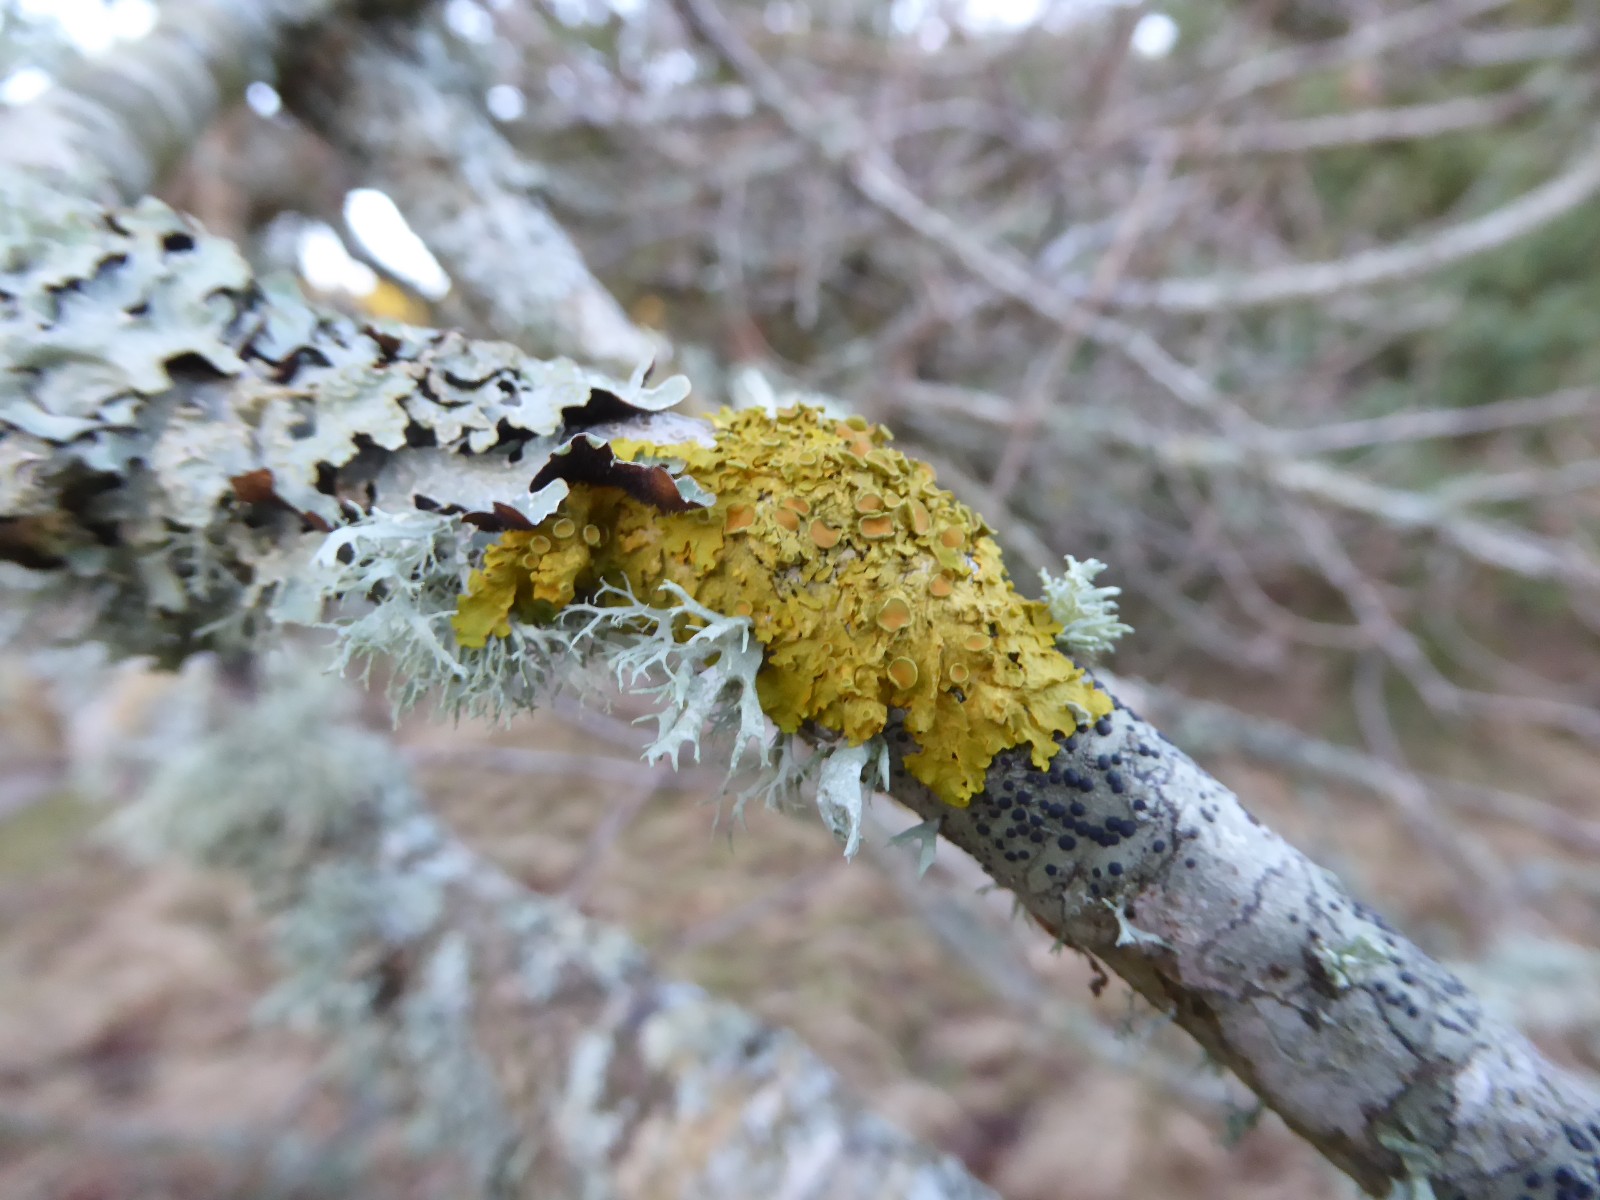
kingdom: Fungi
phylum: Ascomycota
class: Lecanoromycetes
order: Teloschistales
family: Teloschistaceae
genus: Xanthoria
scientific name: Xanthoria parietina
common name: almindelig væggelav
